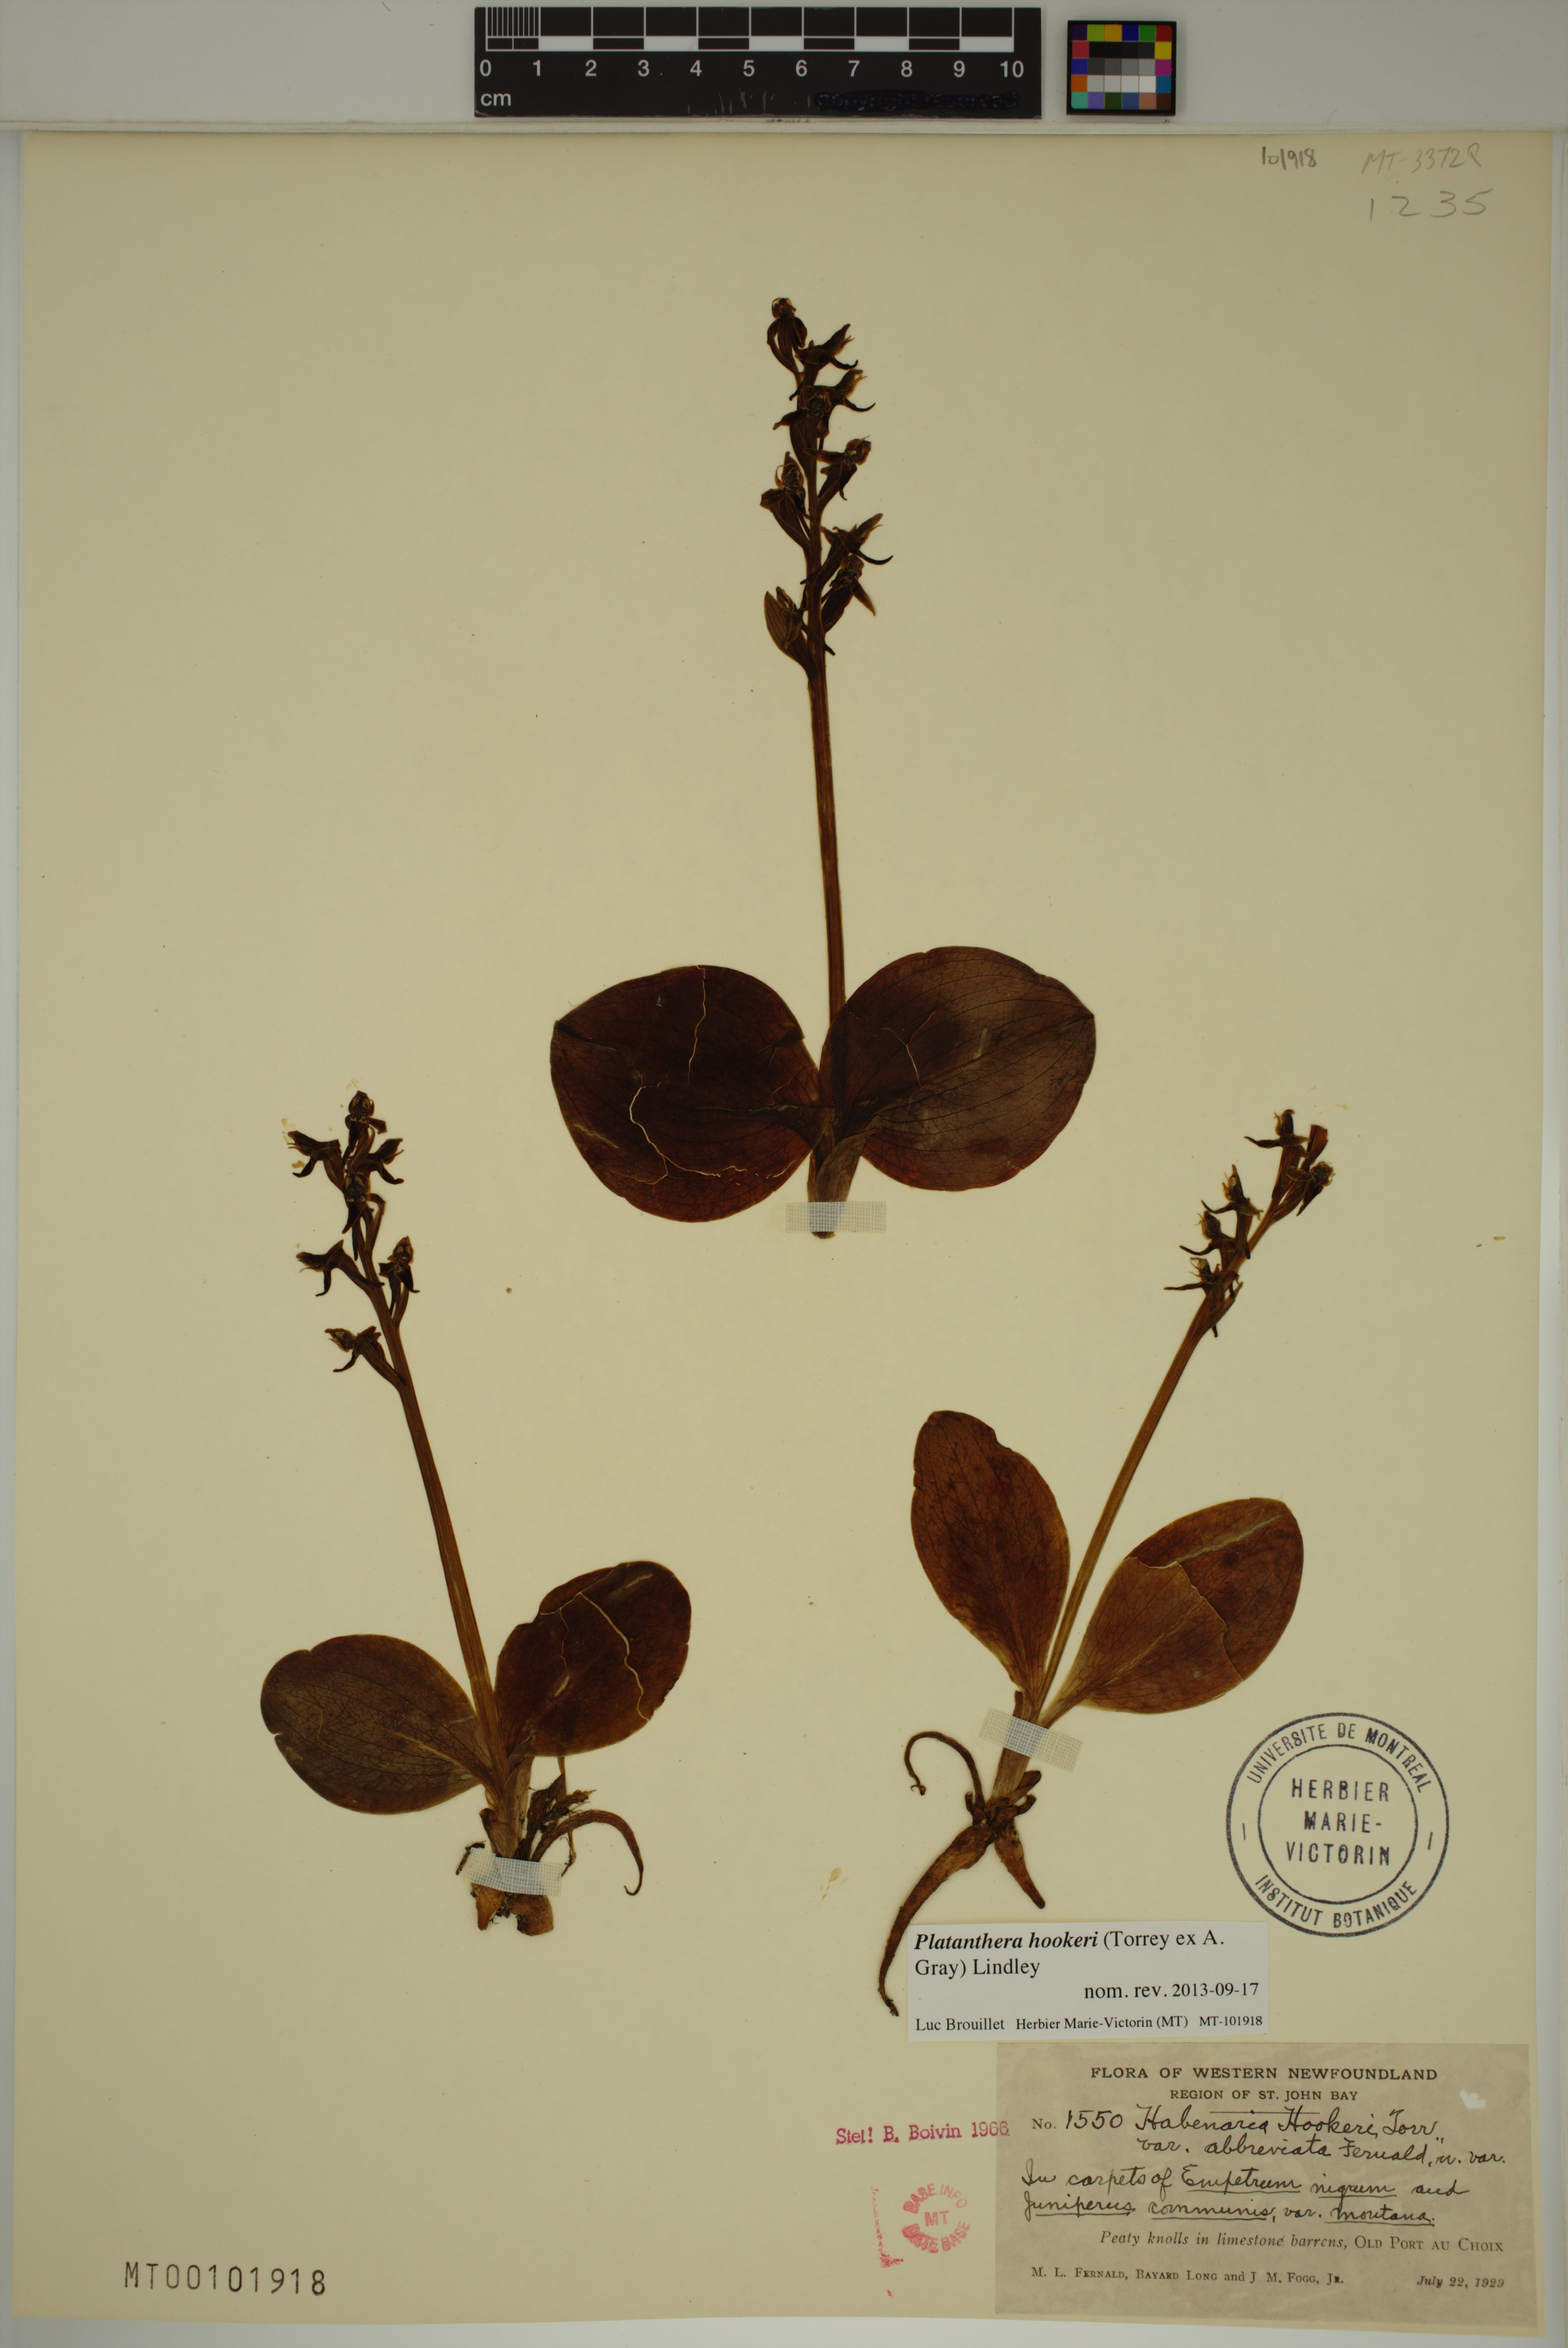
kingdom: Plantae
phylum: Tracheophyta
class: Liliopsida
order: Asparagales
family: Orchidaceae
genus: Platanthera
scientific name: Platanthera hookeri
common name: Hooker's orchid
